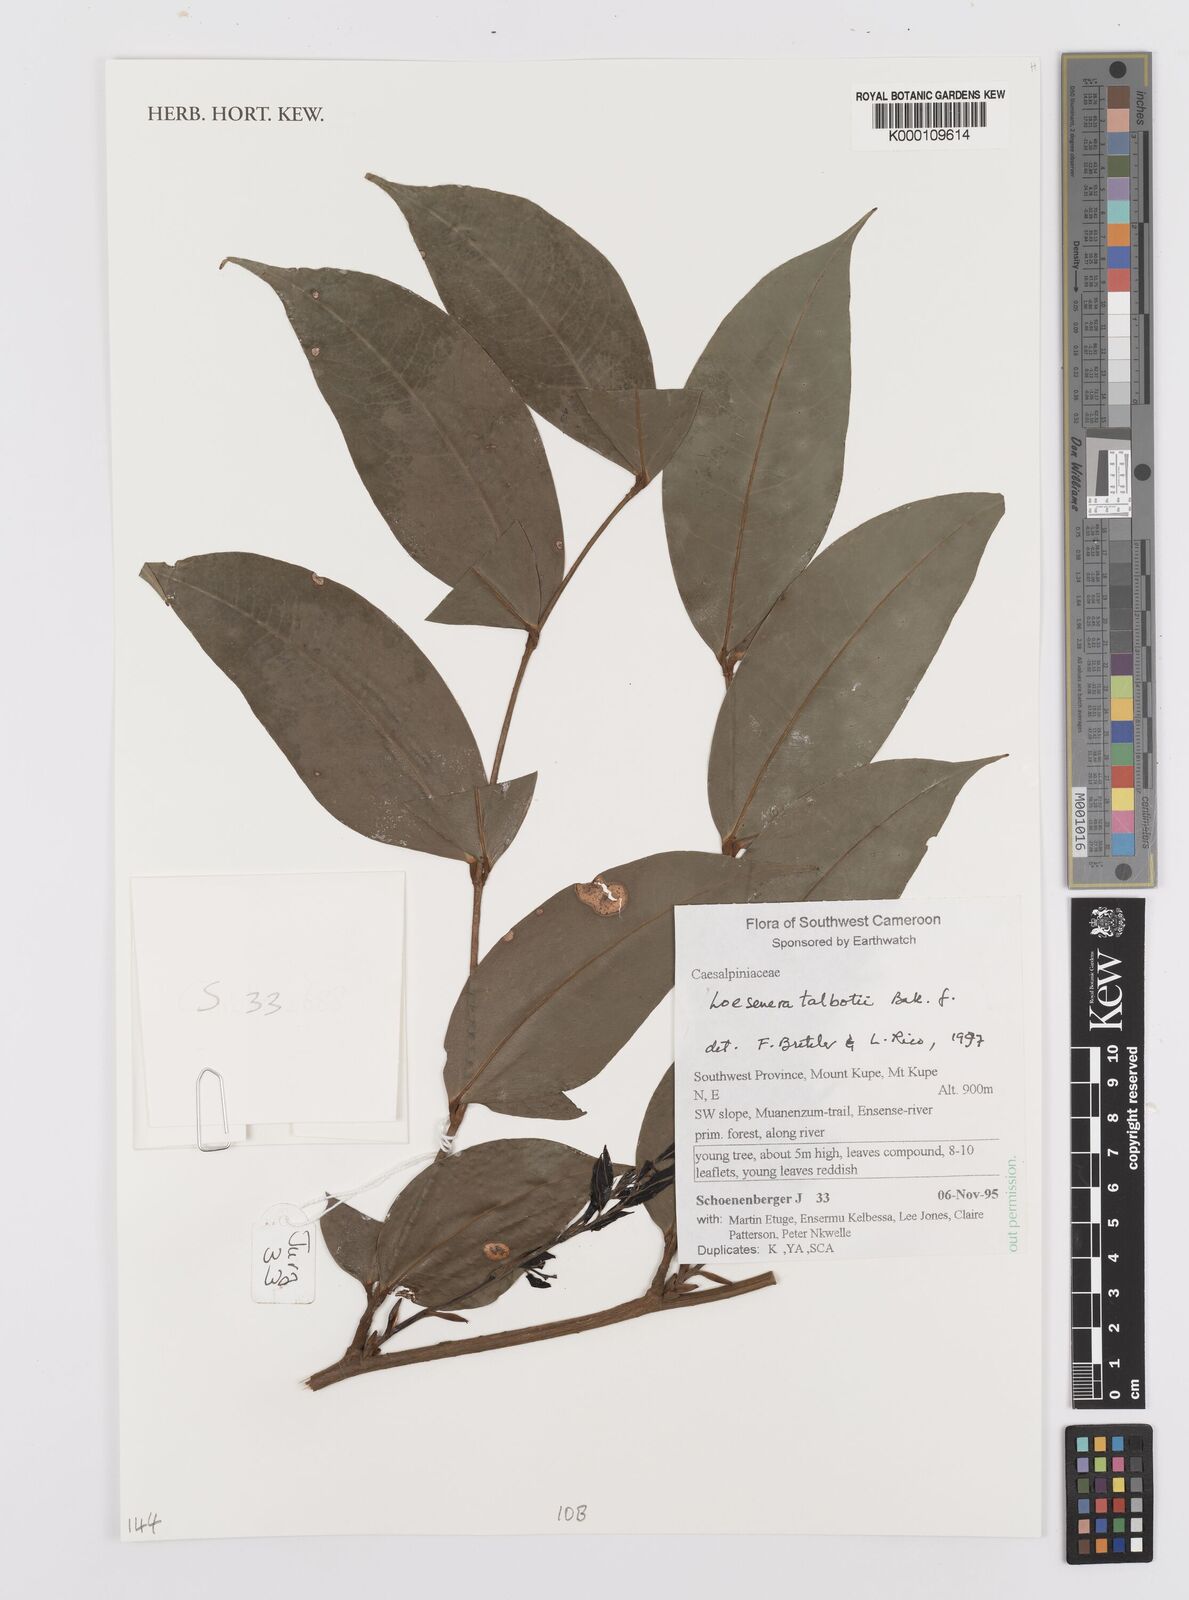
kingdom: Plantae
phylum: Tracheophyta
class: Magnoliopsida
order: Fabales
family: Fabaceae
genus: Loesenera
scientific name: Loesenera talbotii
